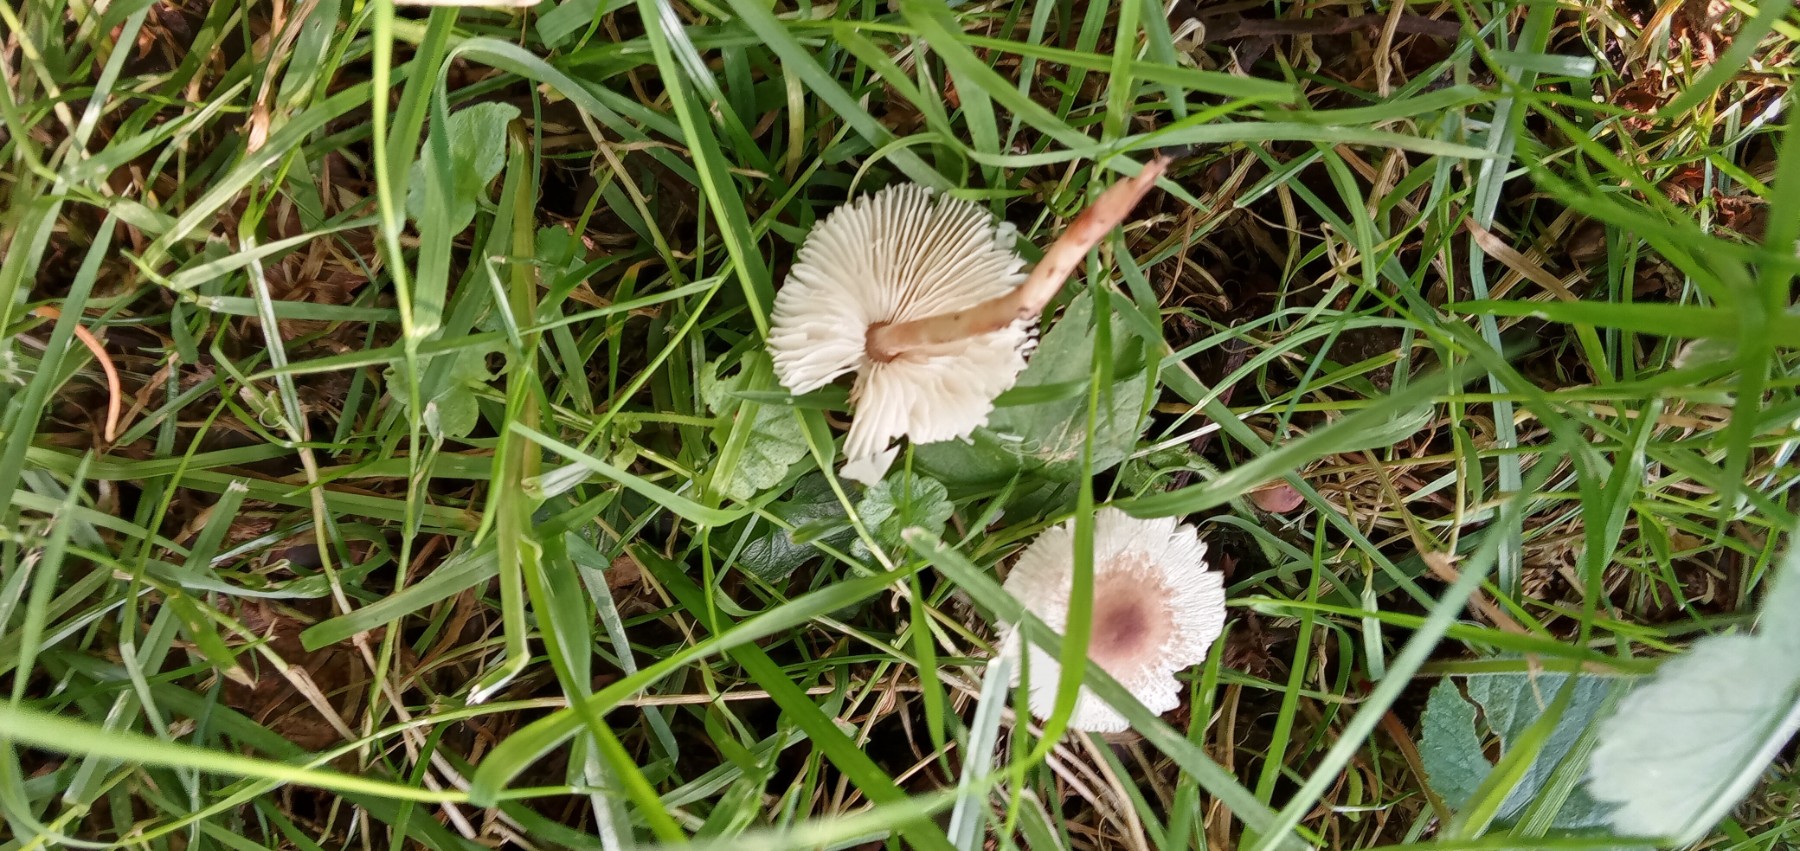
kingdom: Fungi
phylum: Basidiomycota
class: Agaricomycetes
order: Agaricales
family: Agaricaceae
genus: Lepiota
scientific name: Lepiota cristata
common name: stinkende parasolhat
